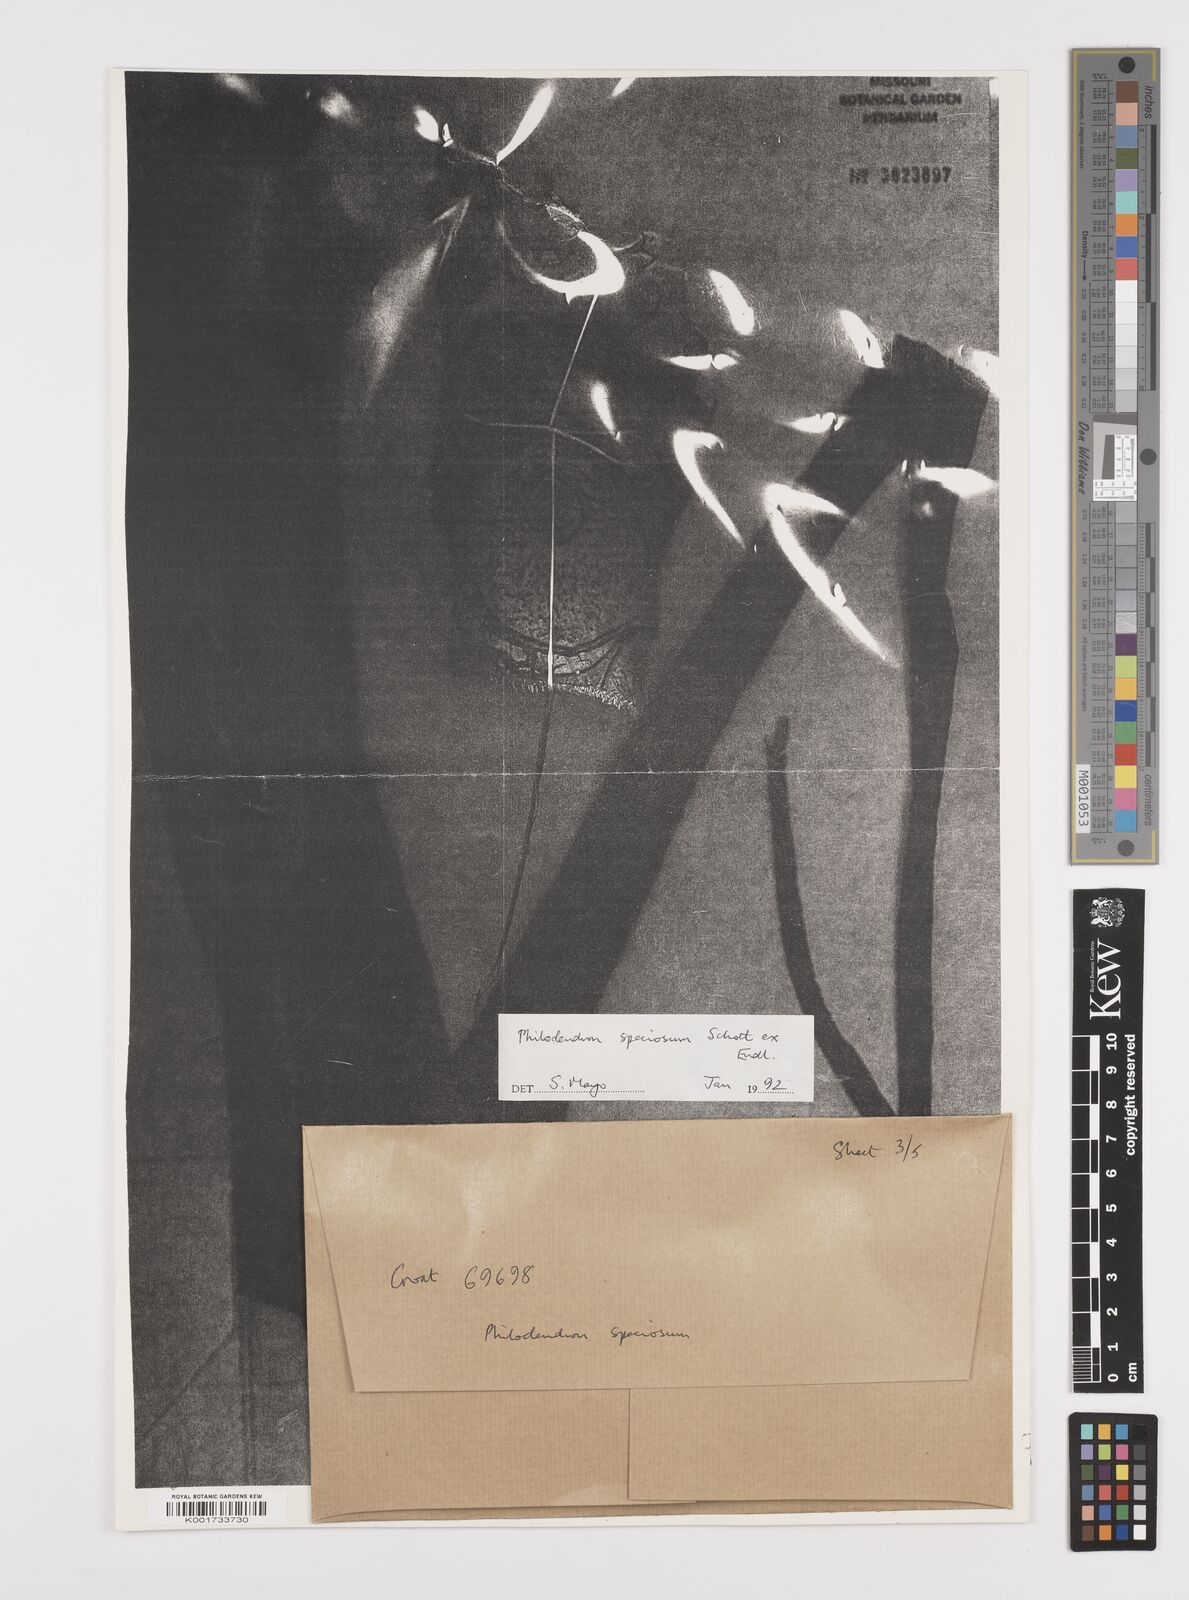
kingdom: Plantae
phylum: Tracheophyta
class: Liliopsida
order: Alismatales
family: Araceae
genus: Thaumatophyllum
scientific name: Thaumatophyllum speciosum
